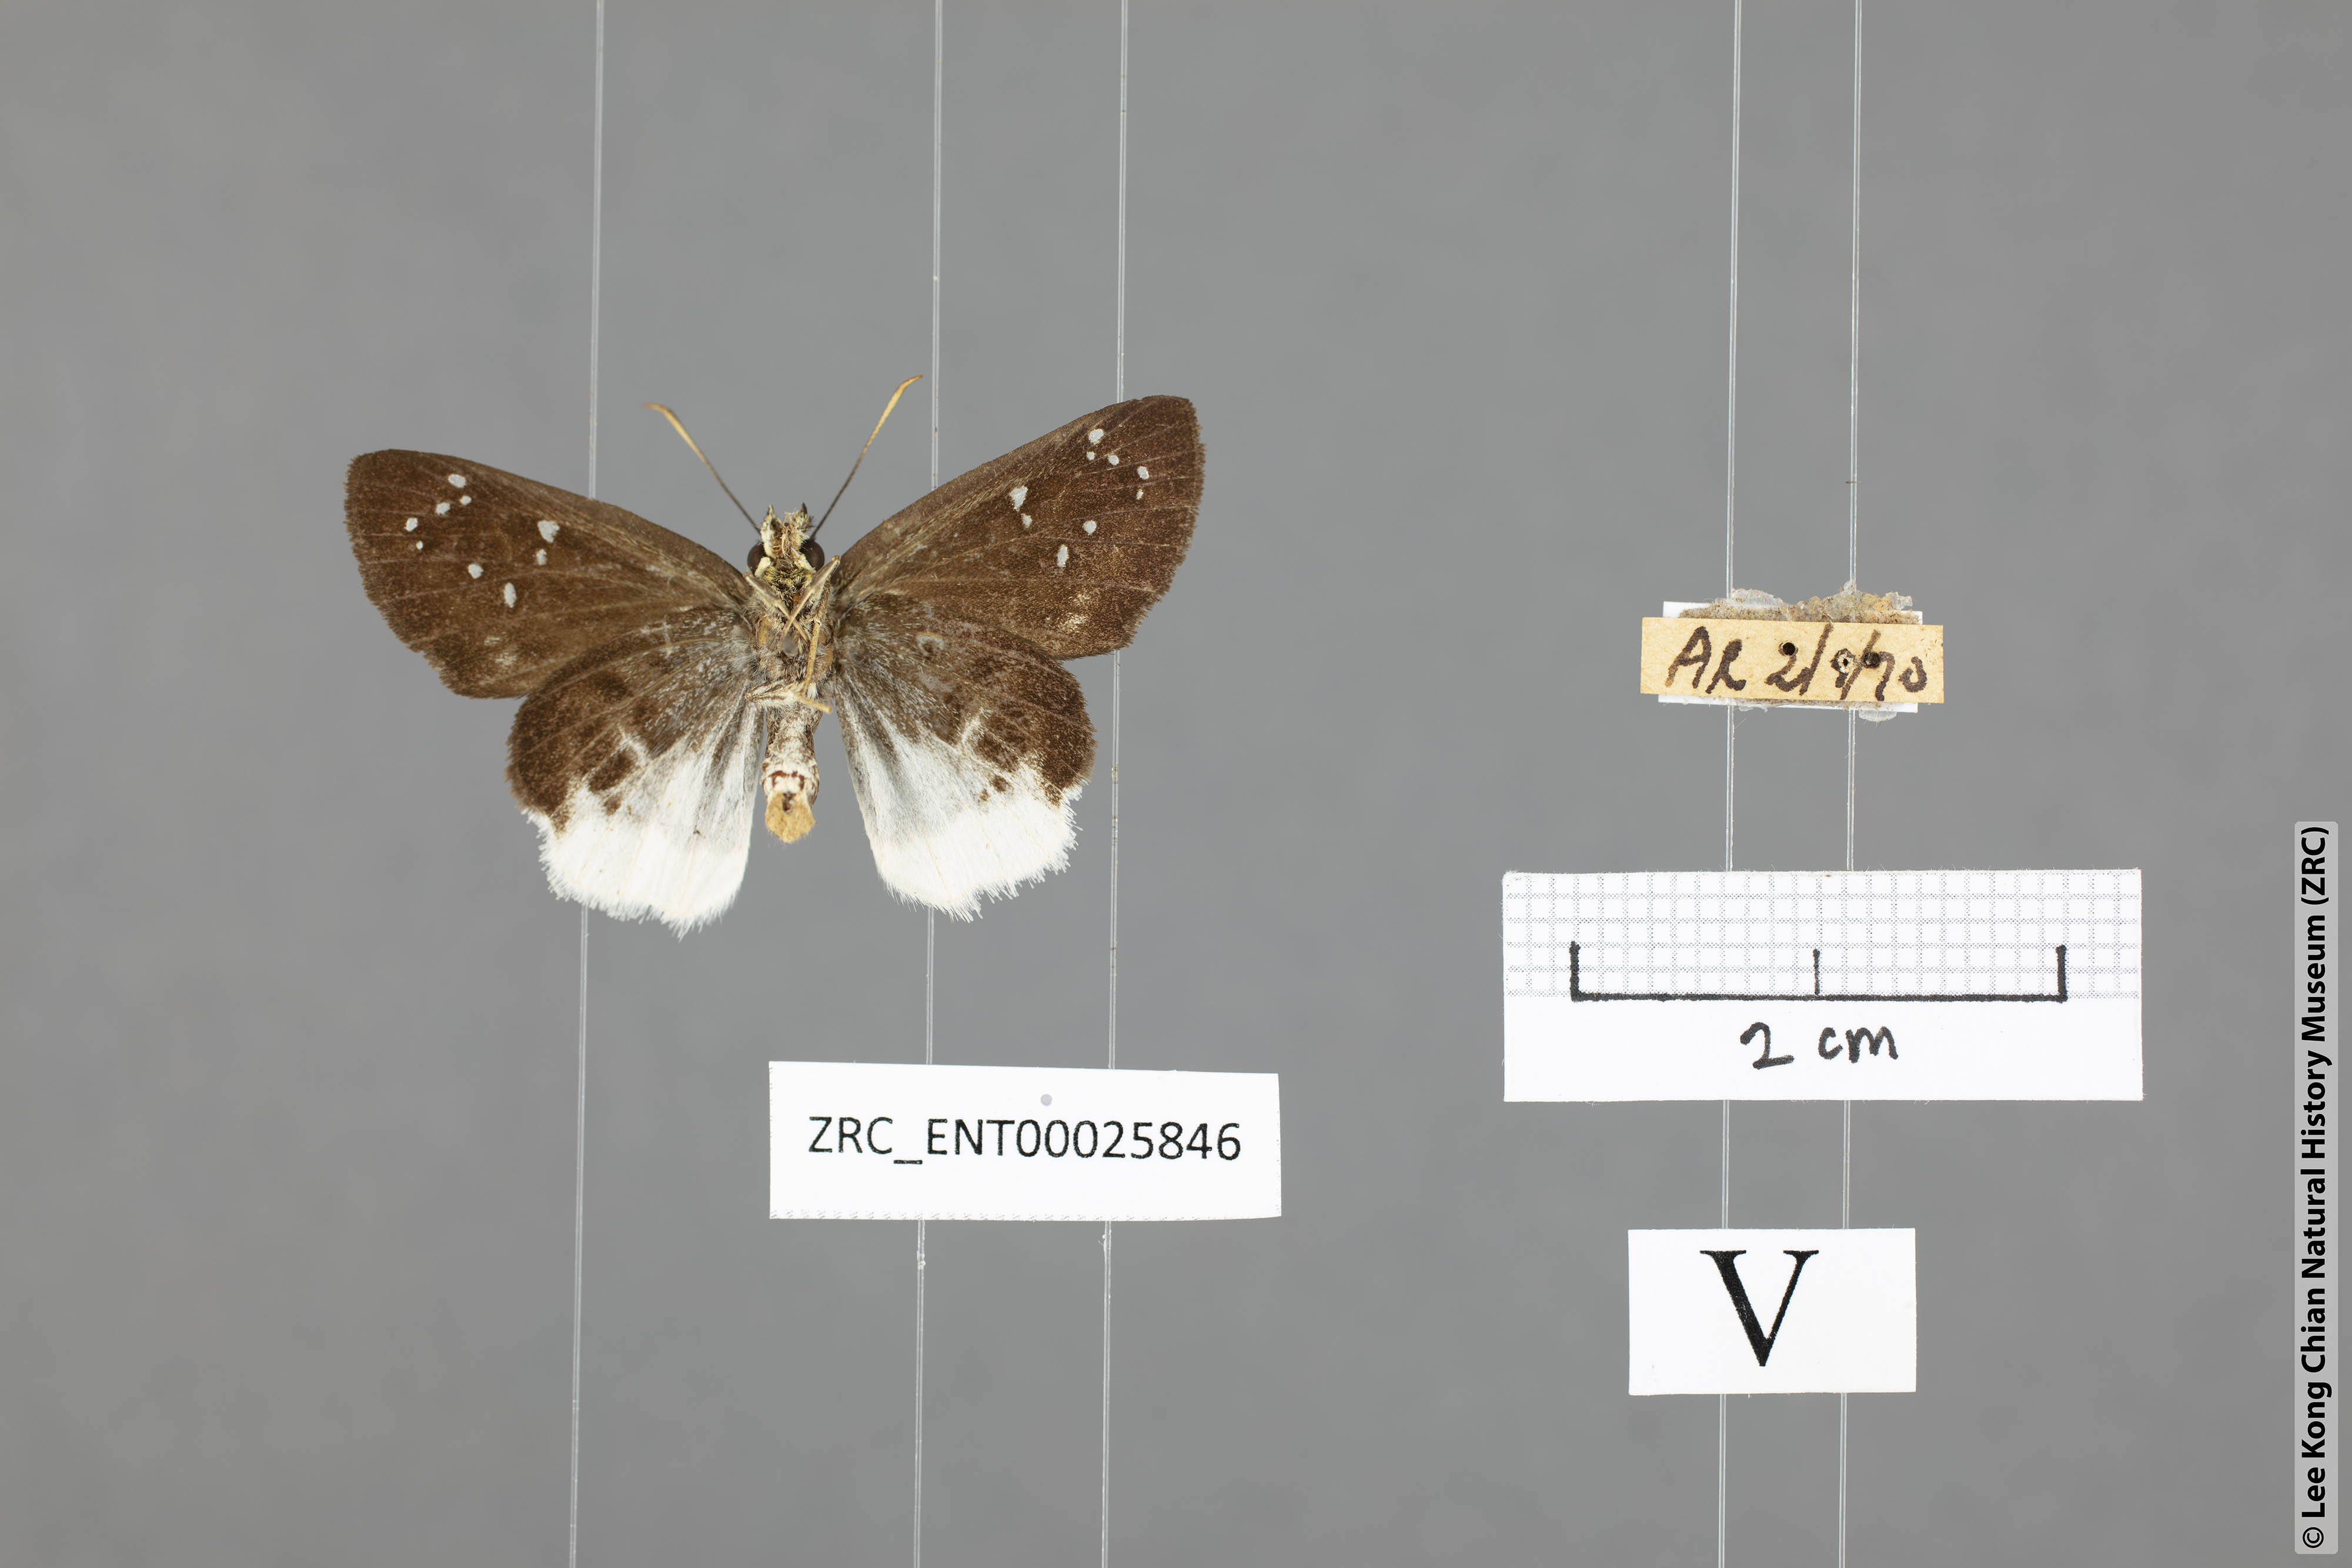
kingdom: Animalia
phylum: Arthropoda
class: Insecta
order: Lepidoptera
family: Hesperiidae
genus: Darpa
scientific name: Darpa pterica
